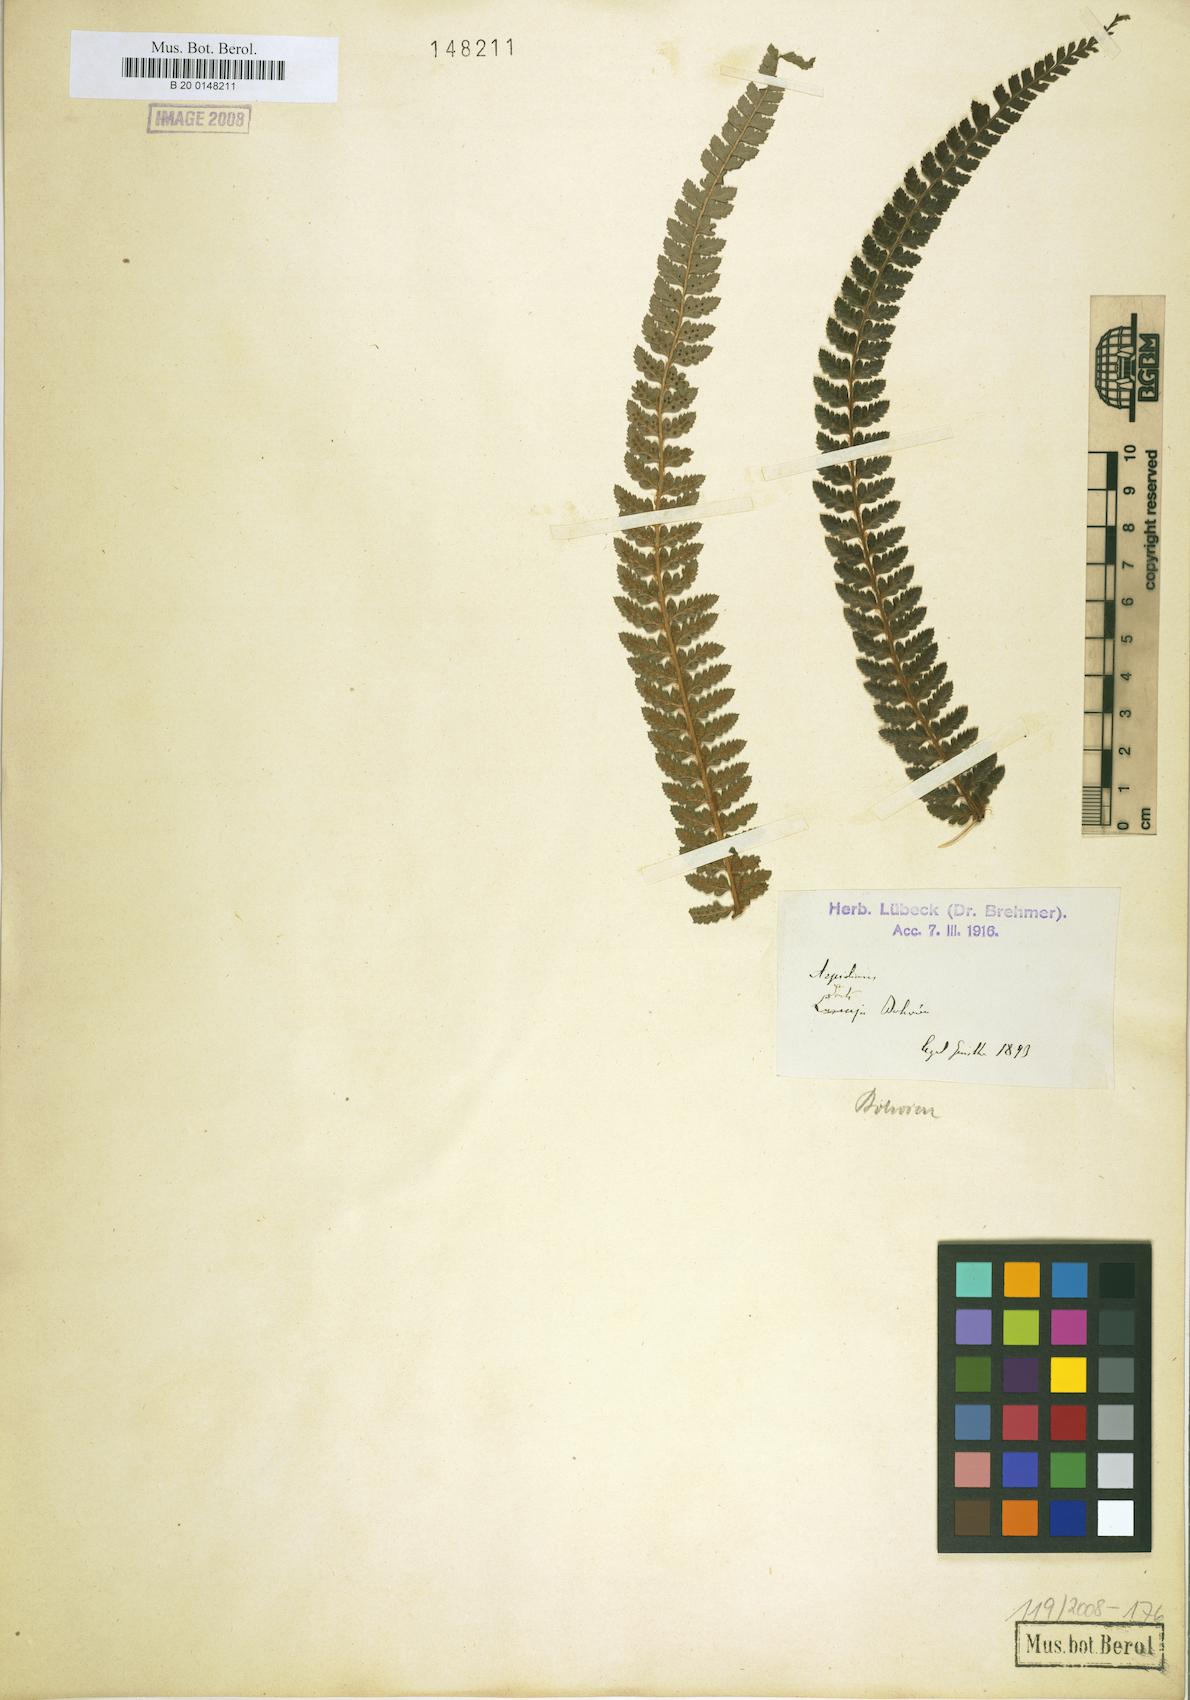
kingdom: Plantae
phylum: Tracheophyta
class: Polypodiopsida
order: Polypodiales
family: Dryopteridaceae
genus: Polystichum
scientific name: Polystichum
